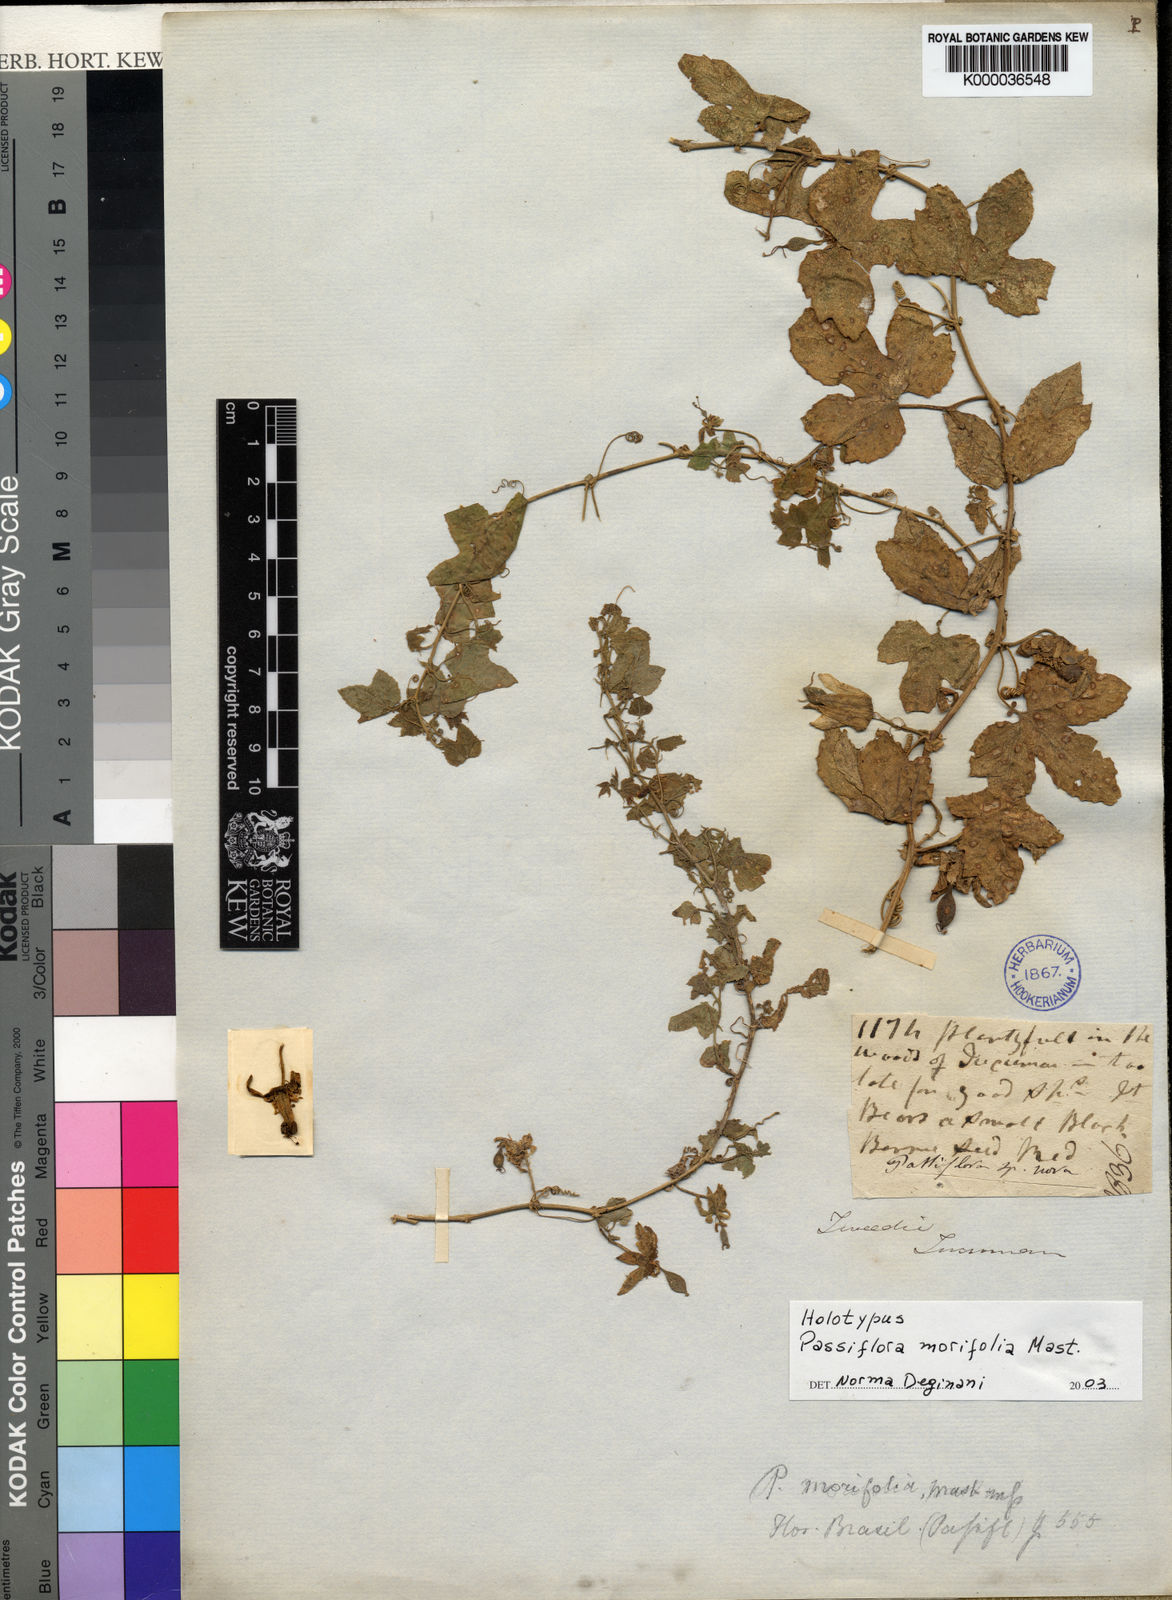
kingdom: Plantae
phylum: Tracheophyta
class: Magnoliopsida
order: Malpighiales
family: Passifloraceae
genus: Passiflora
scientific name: Passiflora morifolia
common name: Woodland passionflower
